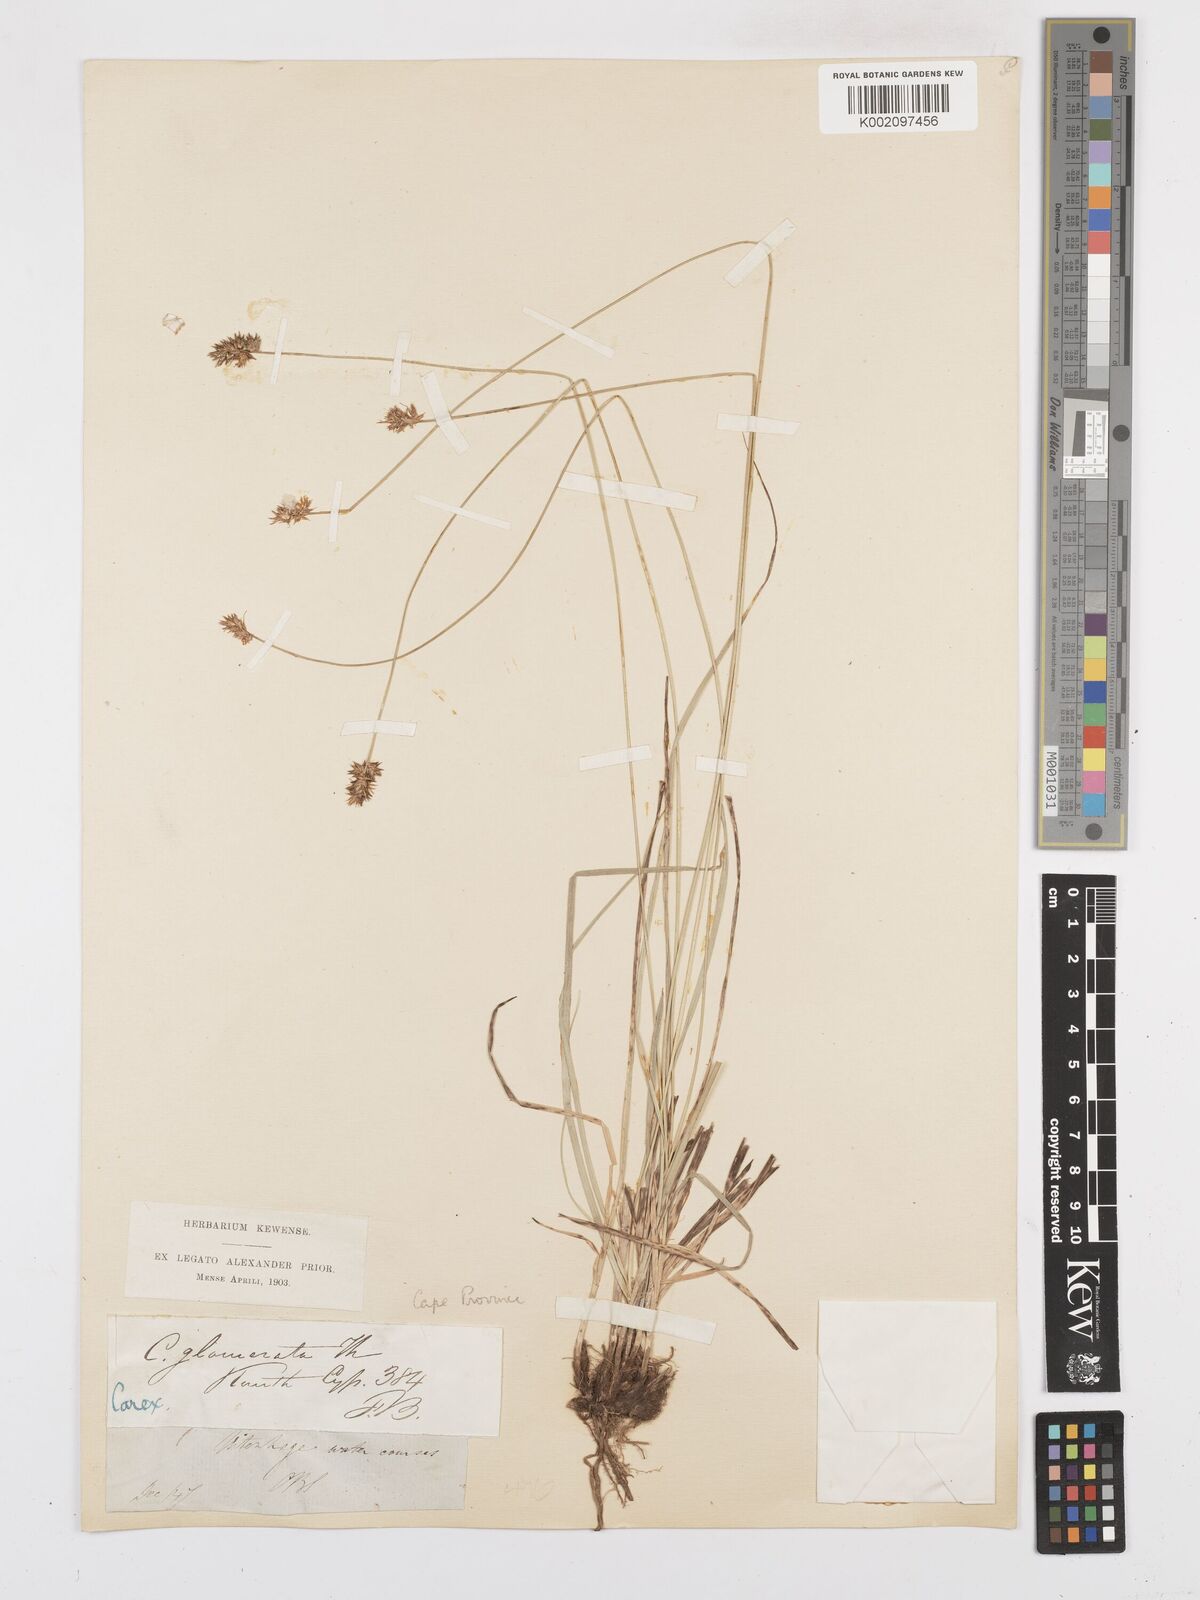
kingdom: Plantae
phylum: Tracheophyta
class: Liliopsida
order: Poales
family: Cyperaceae
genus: Carex
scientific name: Carex glomerata
